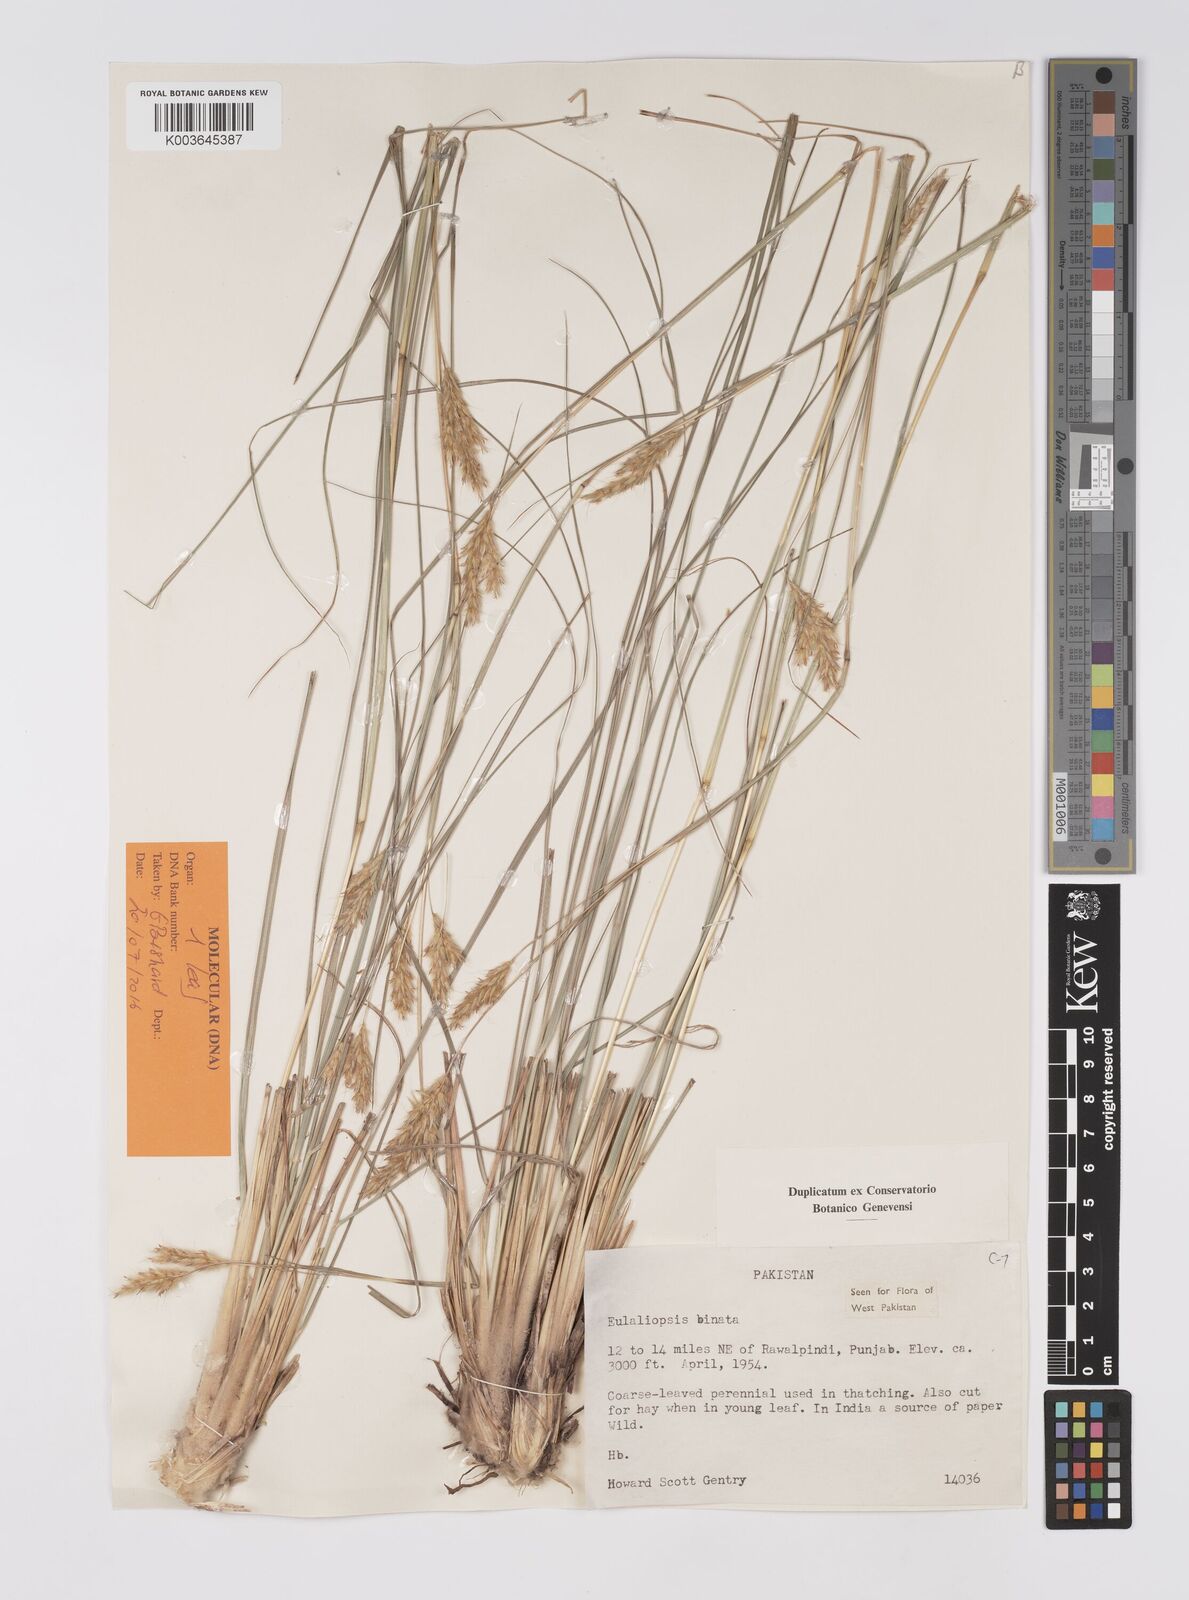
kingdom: Plantae
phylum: Tracheophyta
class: Liliopsida
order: Poales
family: Poaceae
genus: Eulaliopsis
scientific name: Eulaliopsis binata
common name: Baib grass
